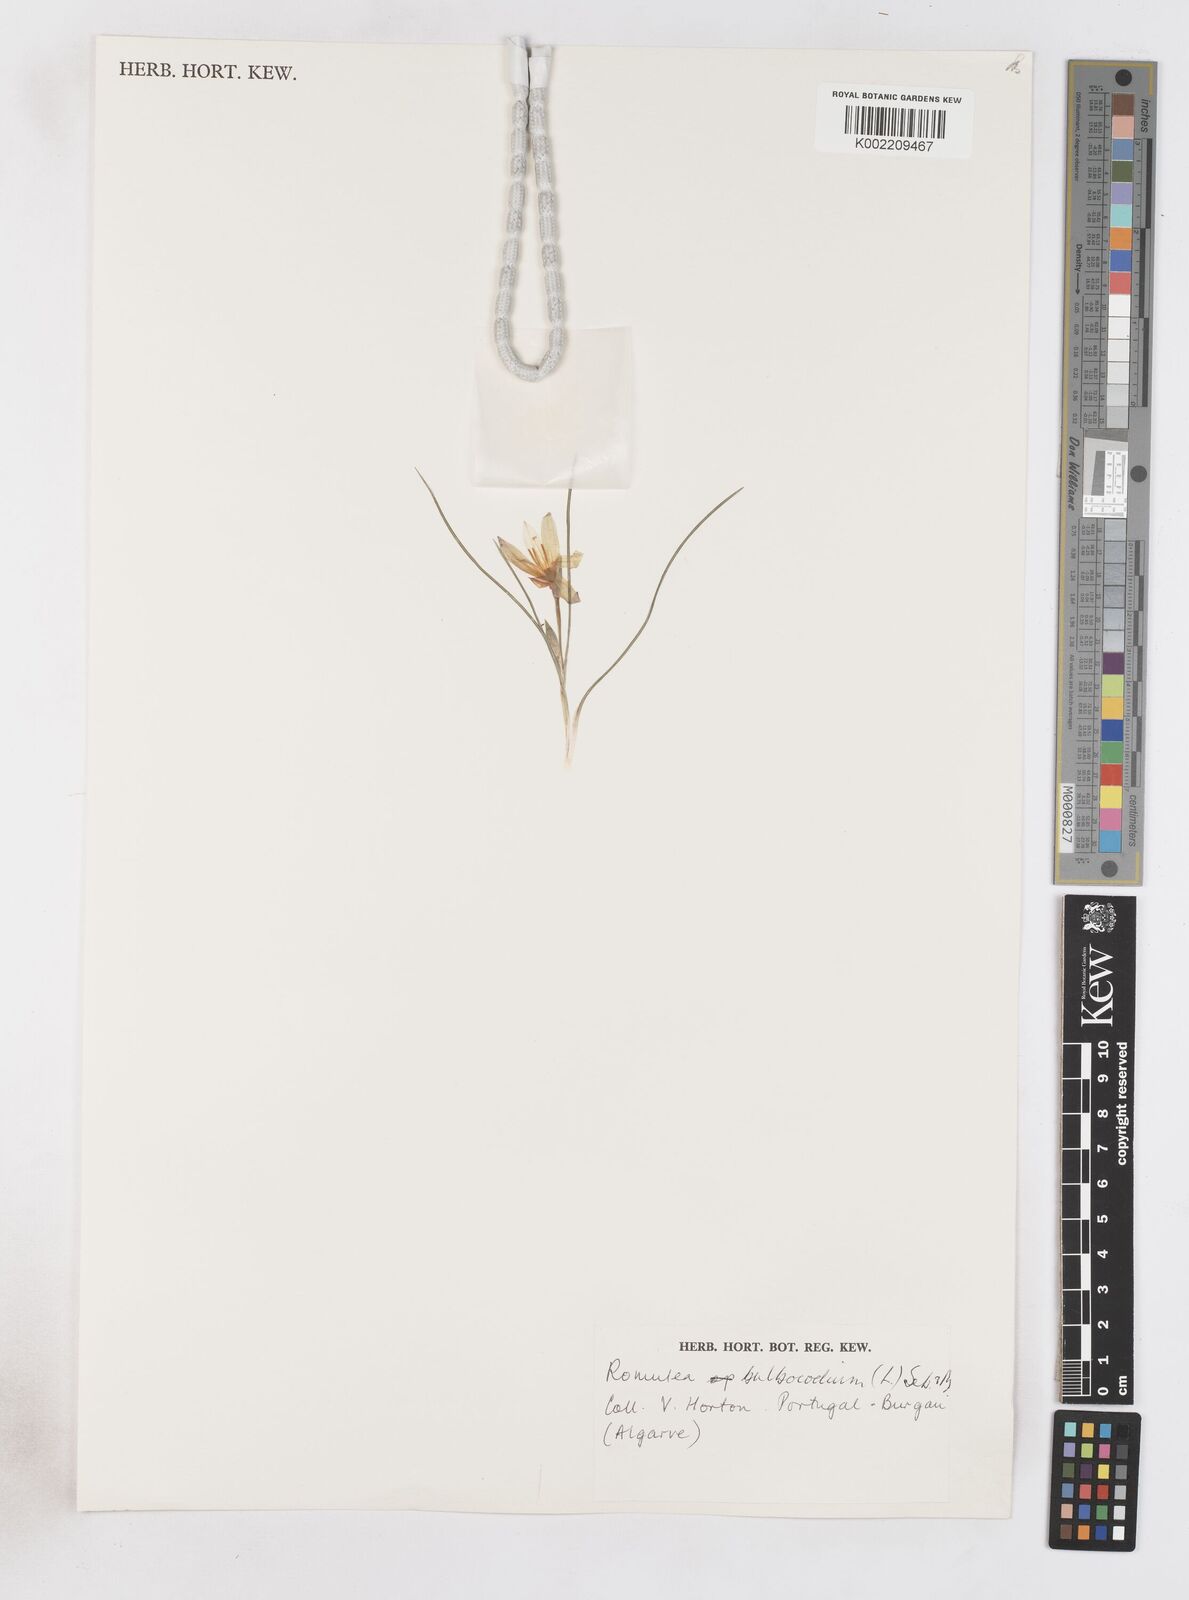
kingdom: Plantae
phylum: Tracheophyta
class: Liliopsida
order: Asparagales
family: Iridaceae
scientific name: Iridaceae
